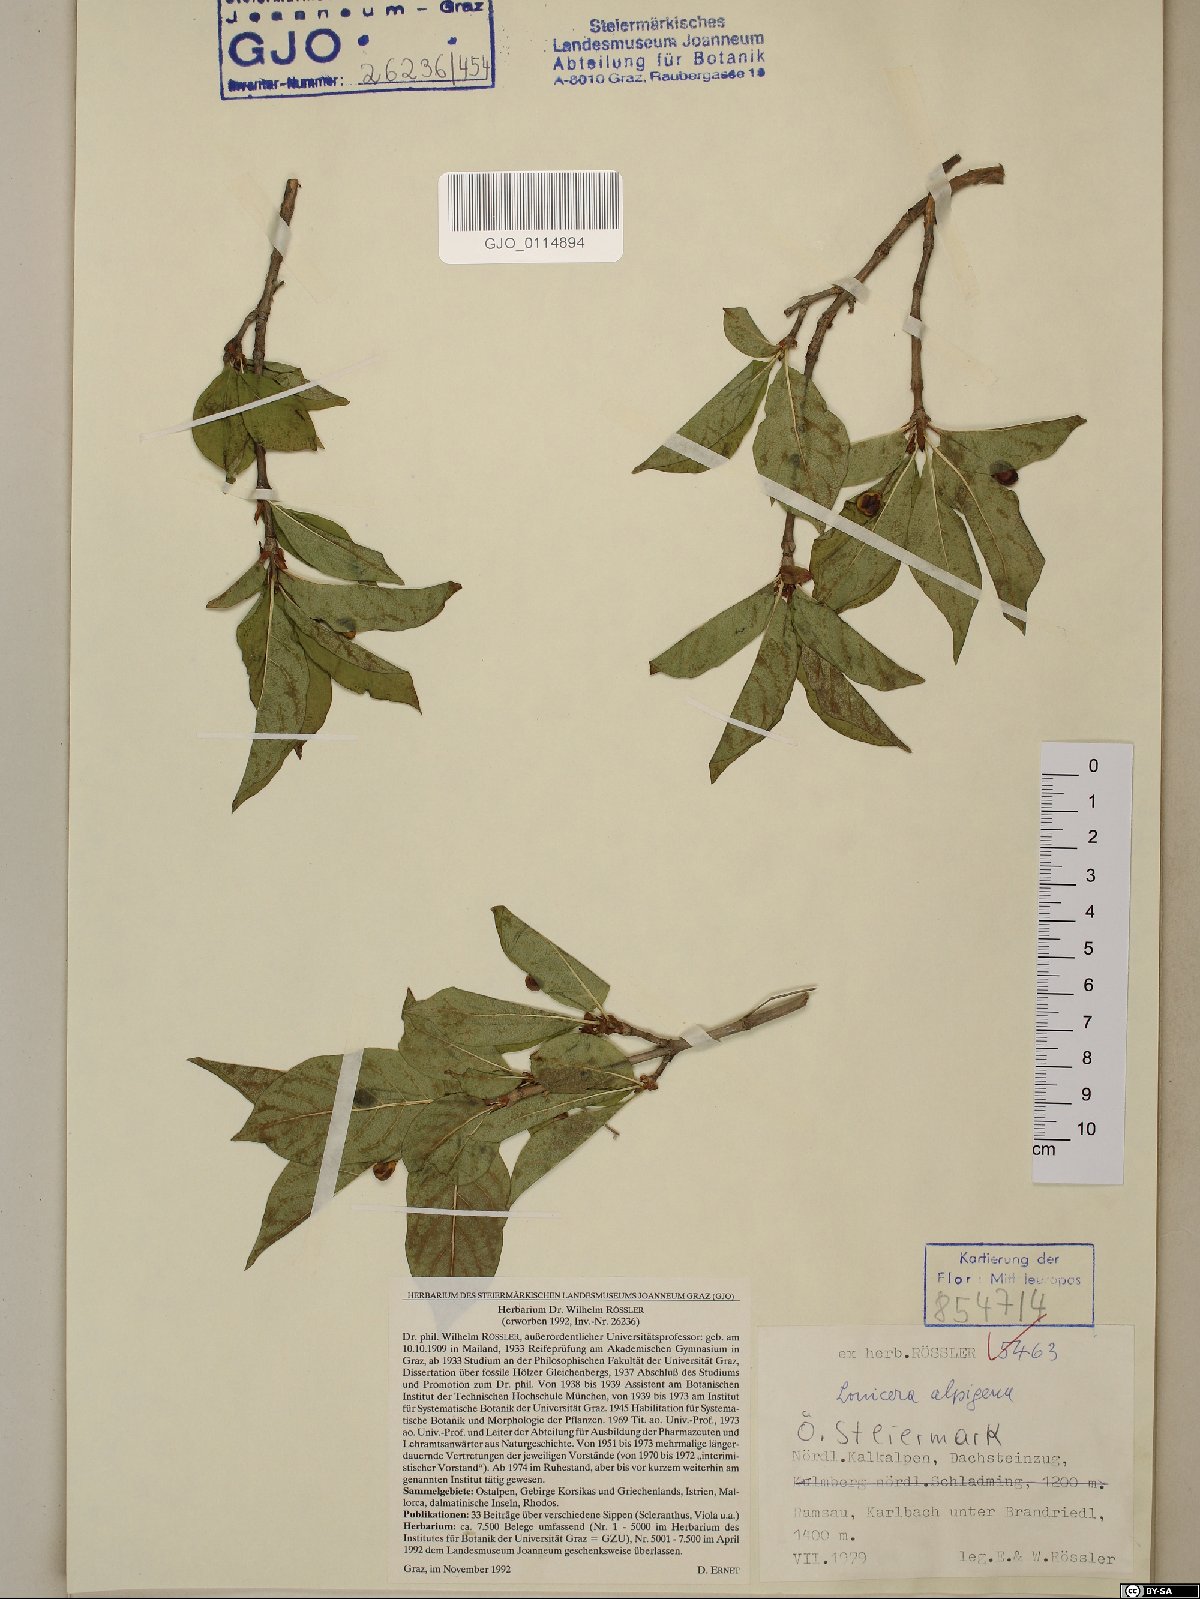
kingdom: Plantae
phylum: Tracheophyta
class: Magnoliopsida
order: Dipsacales
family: Caprifoliaceae
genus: Lonicera
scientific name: Lonicera alpigena
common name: Alpine honeysuckle
